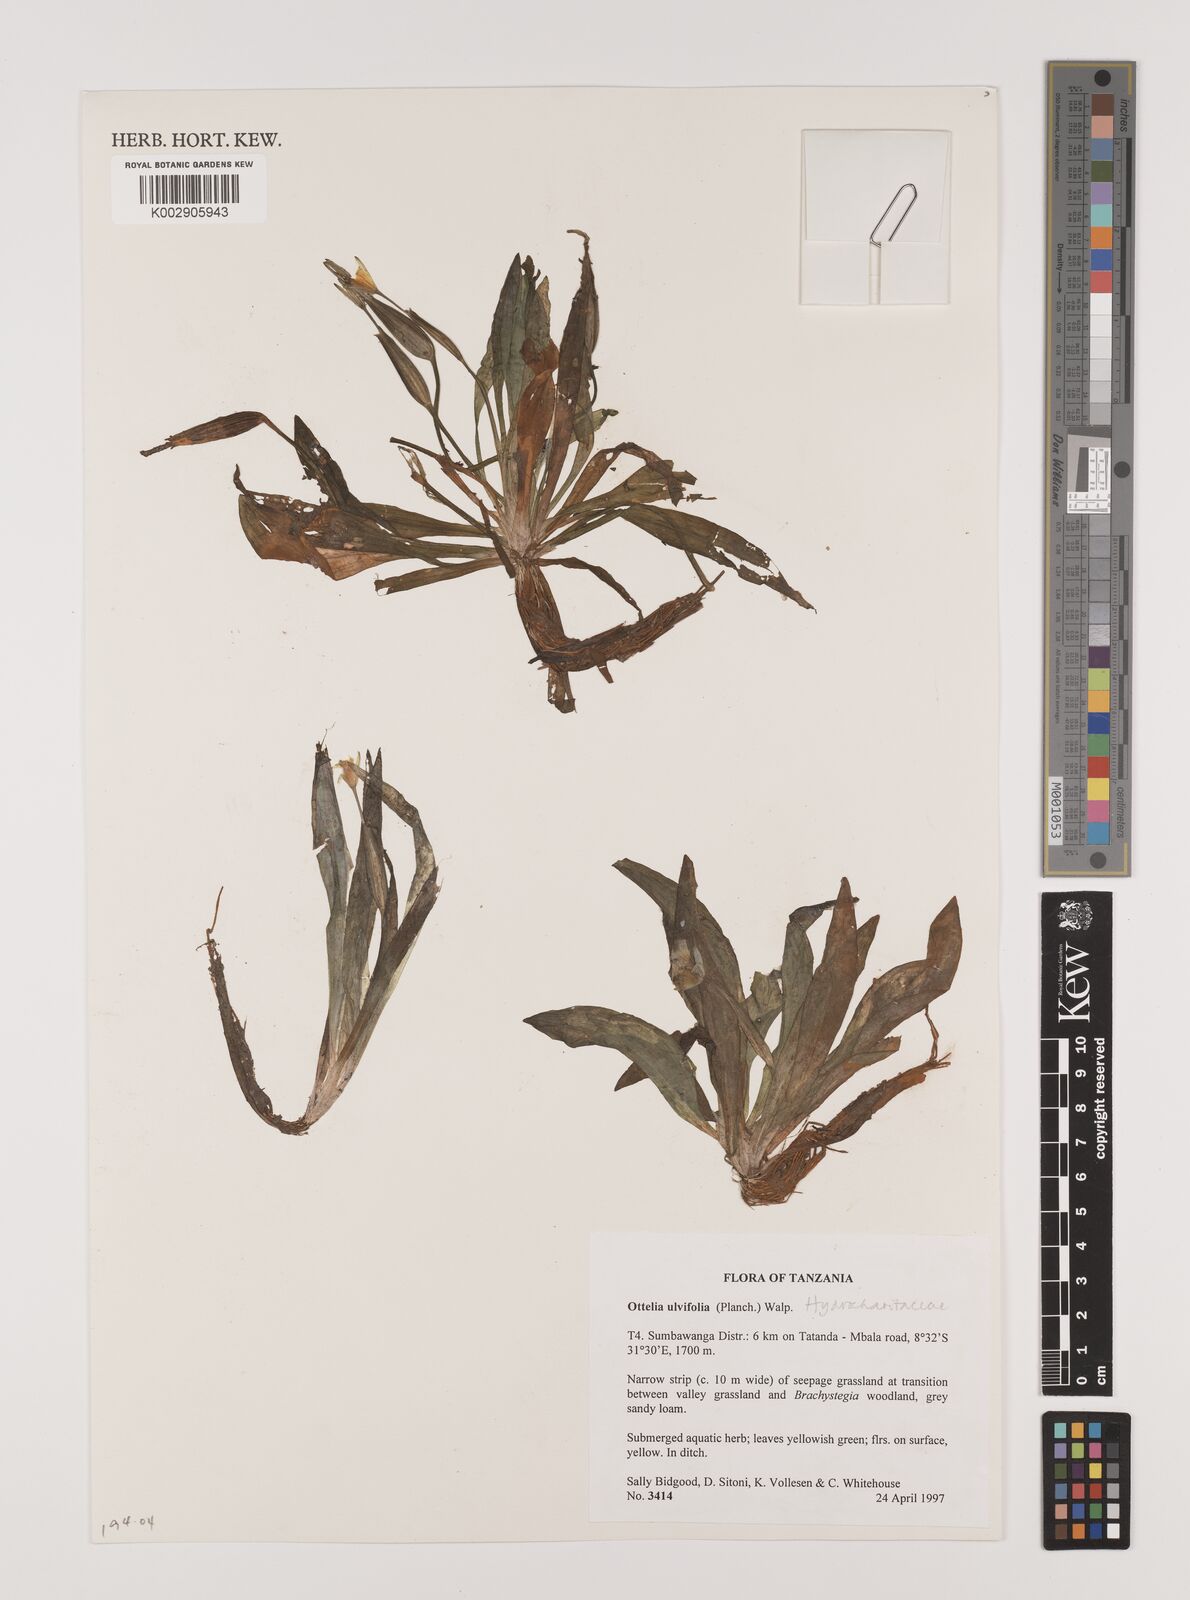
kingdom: Plantae
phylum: Tracheophyta
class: Liliopsida
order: Alismatales
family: Hydrocharitaceae
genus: Ottelia
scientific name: Ottelia ulvifolia
